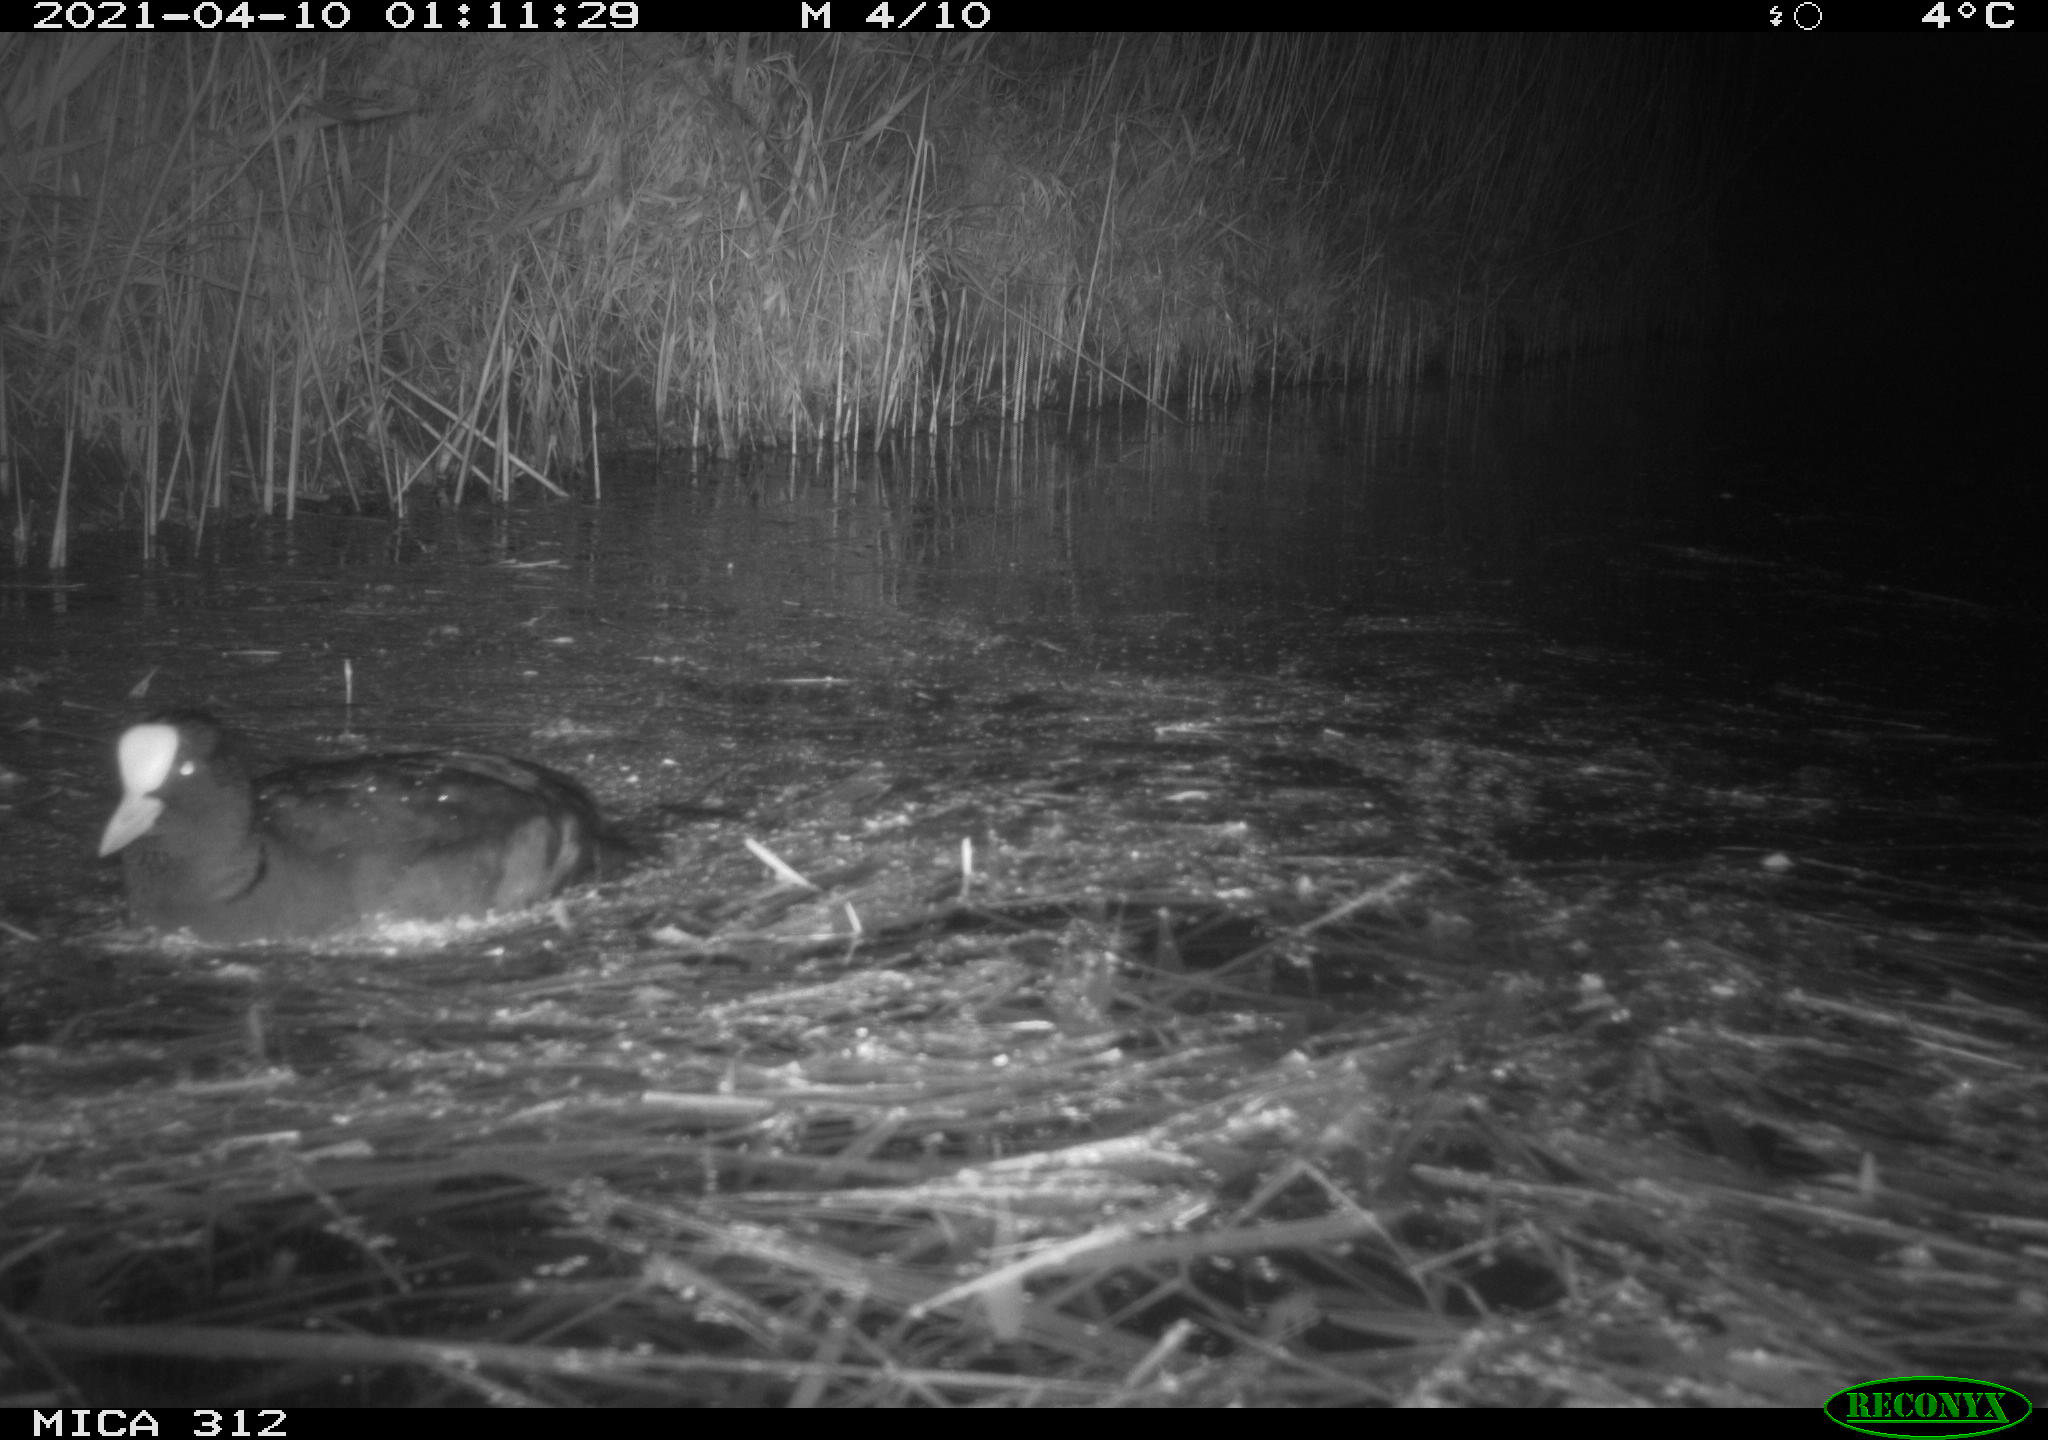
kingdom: Animalia
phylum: Chordata
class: Aves
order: Gruiformes
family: Rallidae
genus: Fulica
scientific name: Fulica atra
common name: Eurasian coot
